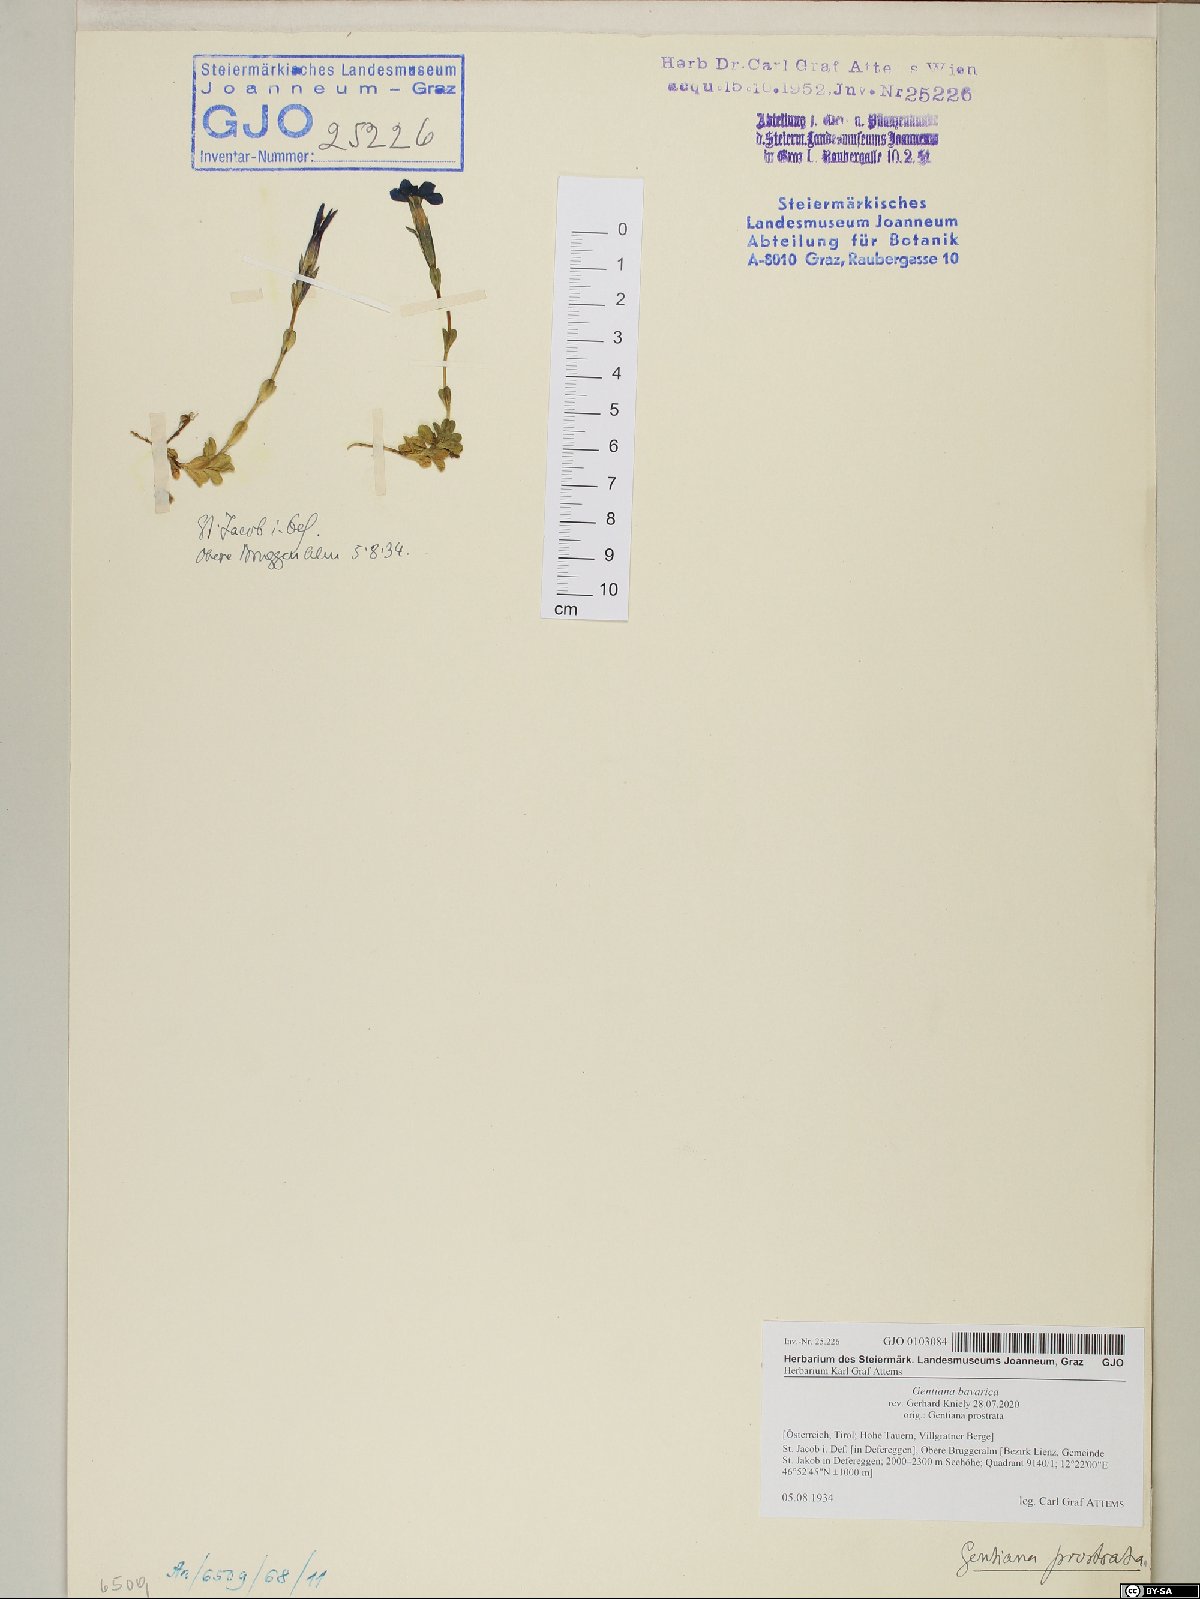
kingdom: Plantae
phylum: Tracheophyta
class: Magnoliopsida
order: Gentianales
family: Gentianaceae
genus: Gentiana
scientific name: Gentiana bavarica
